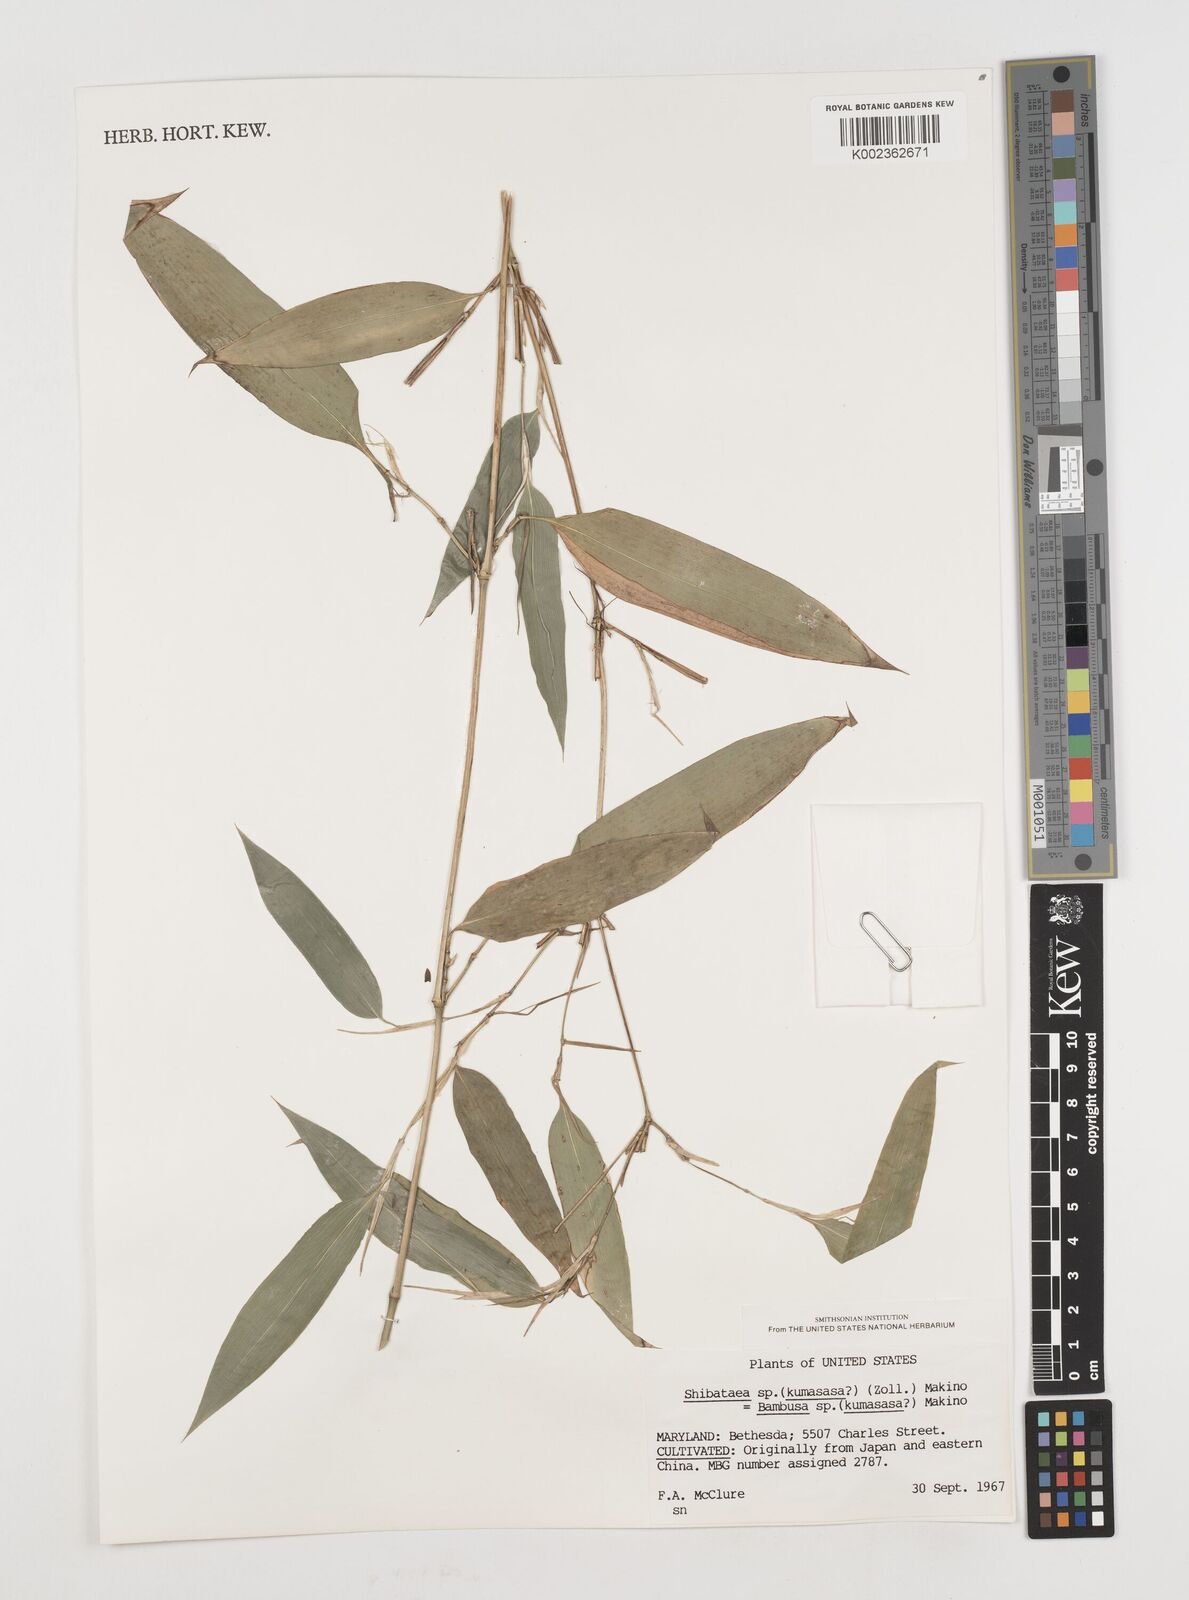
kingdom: Plantae
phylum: Tracheophyta
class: Liliopsida
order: Poales
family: Poaceae
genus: Shibataea
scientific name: Shibataea
